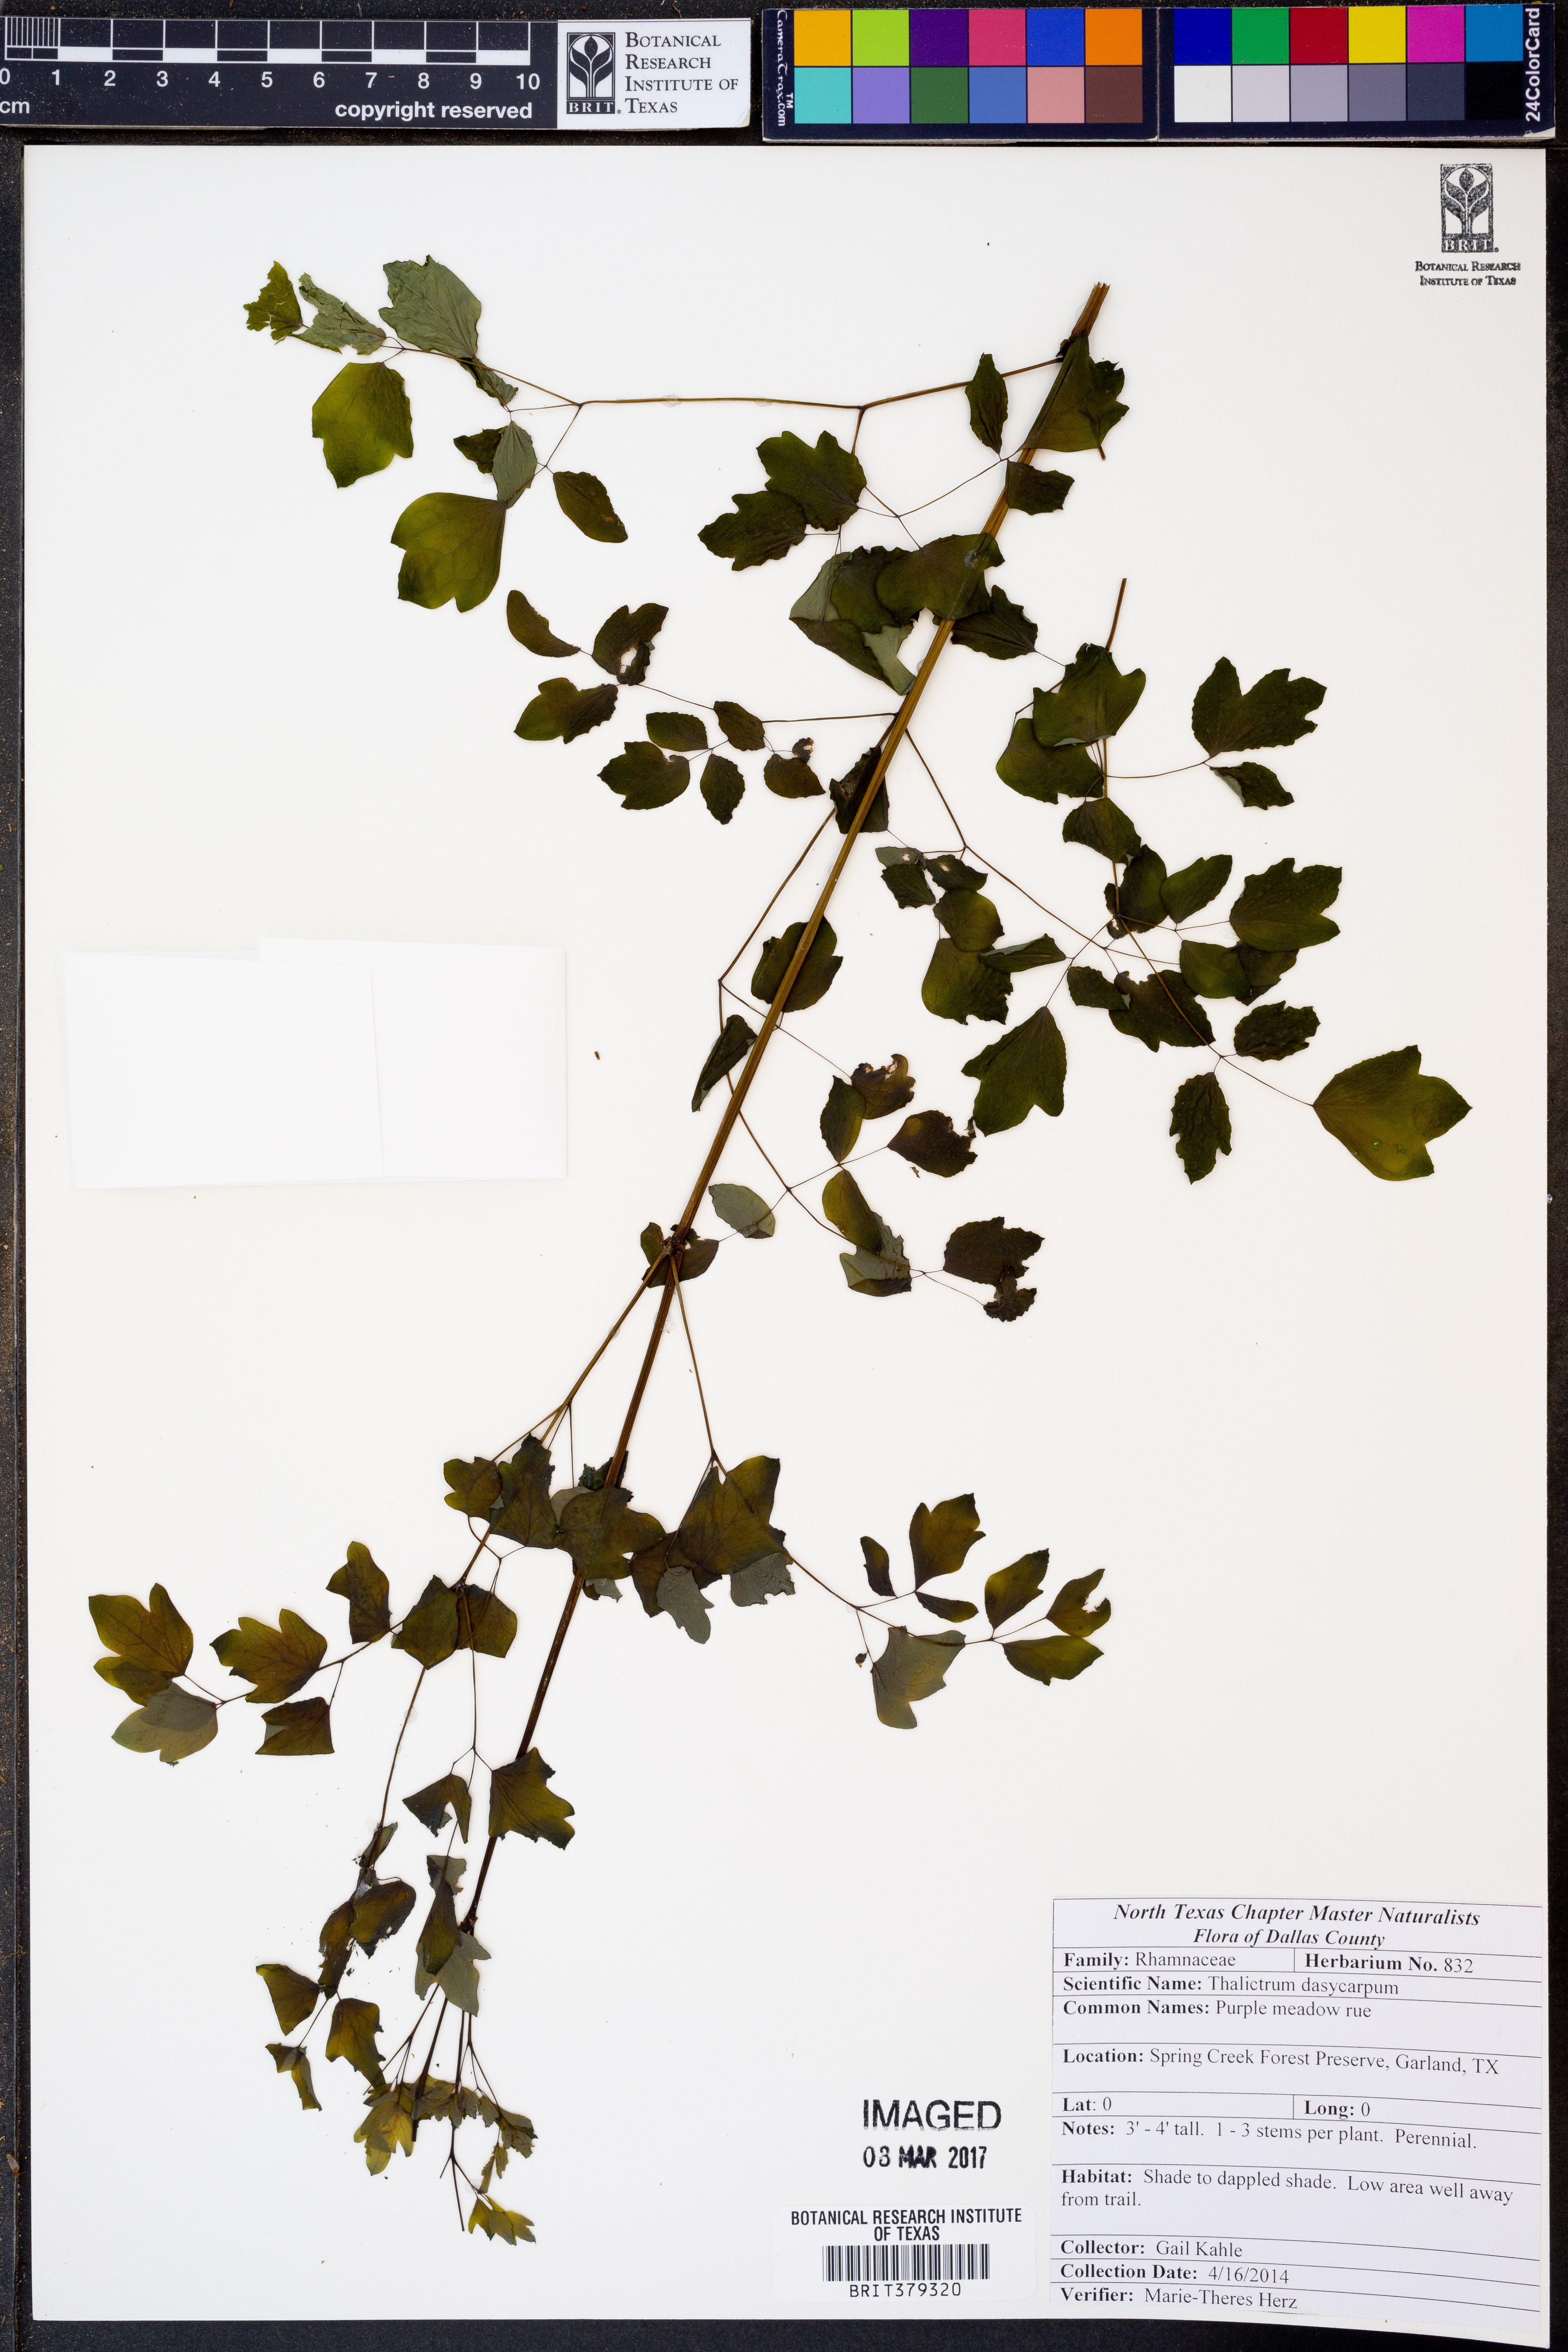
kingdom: Plantae
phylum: Tracheophyta
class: Magnoliopsida
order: Ranunculales
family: Ranunculaceae
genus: Thalictrum
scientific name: Thalictrum dasycarpum
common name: Purple meadow-rue
